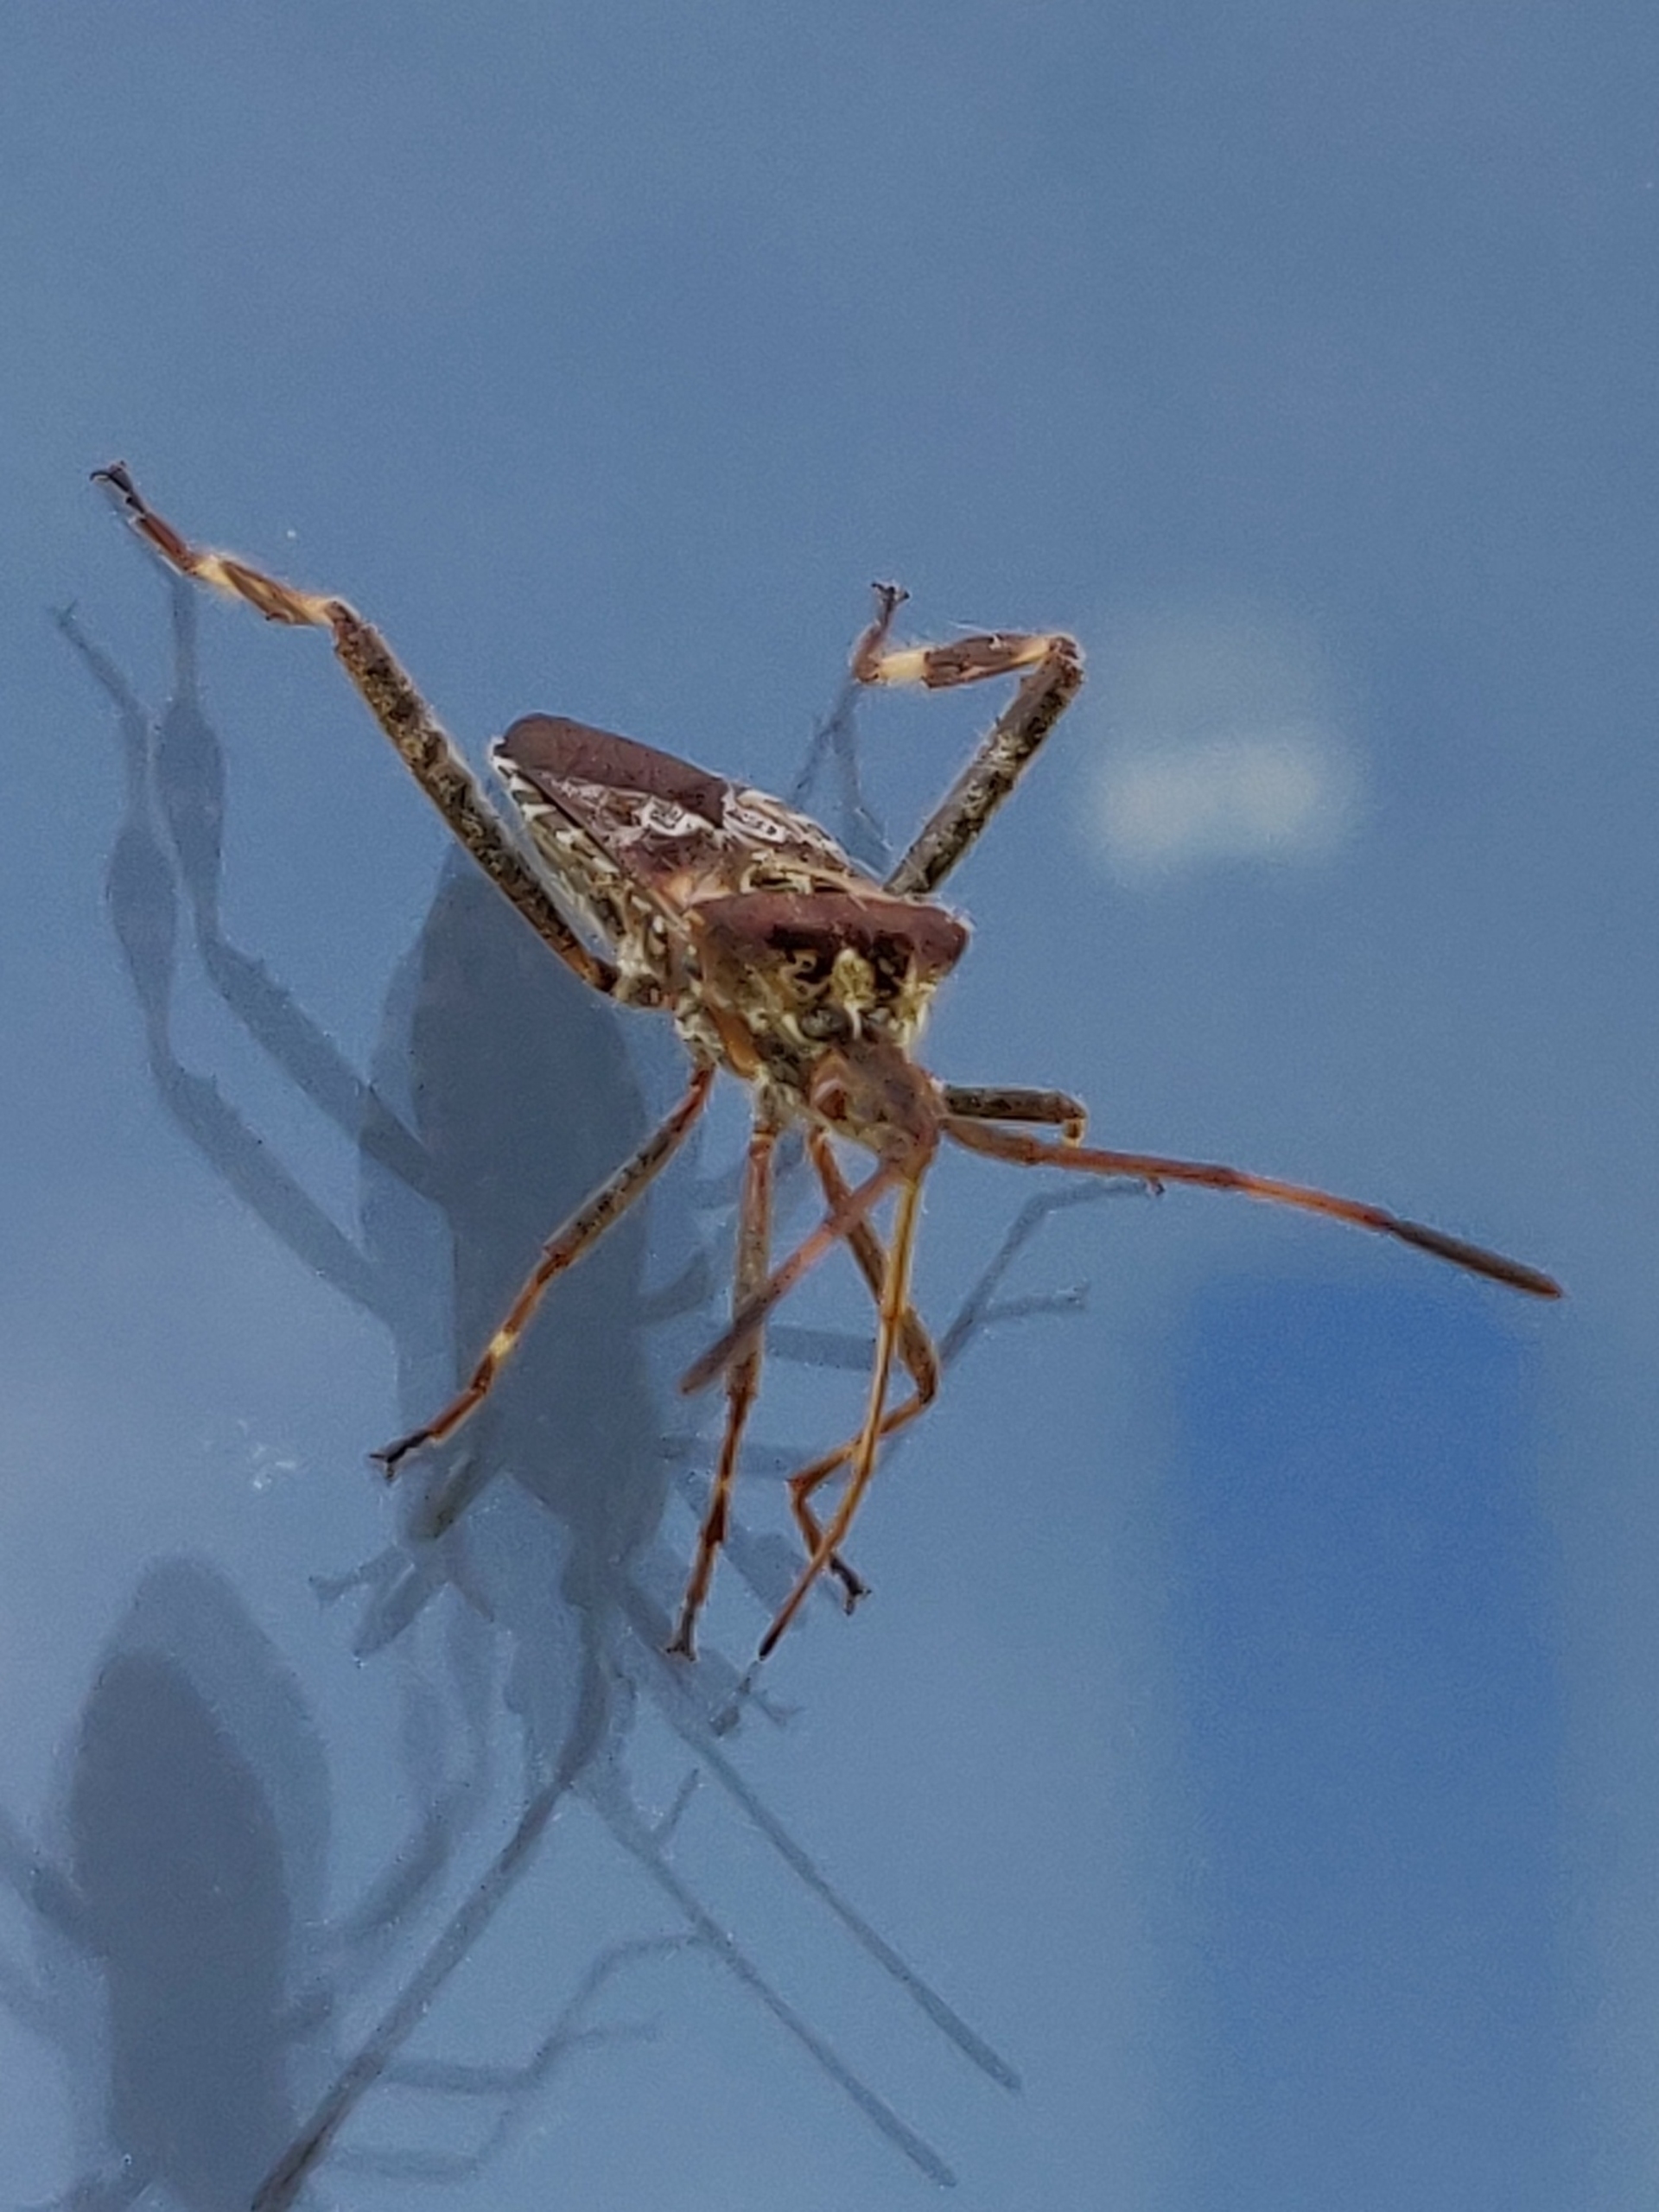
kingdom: Animalia
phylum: Arthropoda
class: Insecta
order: Hemiptera
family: Coreidae
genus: Leptoglossus
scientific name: Leptoglossus occidentalis
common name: Amerikansk fyrretæge
